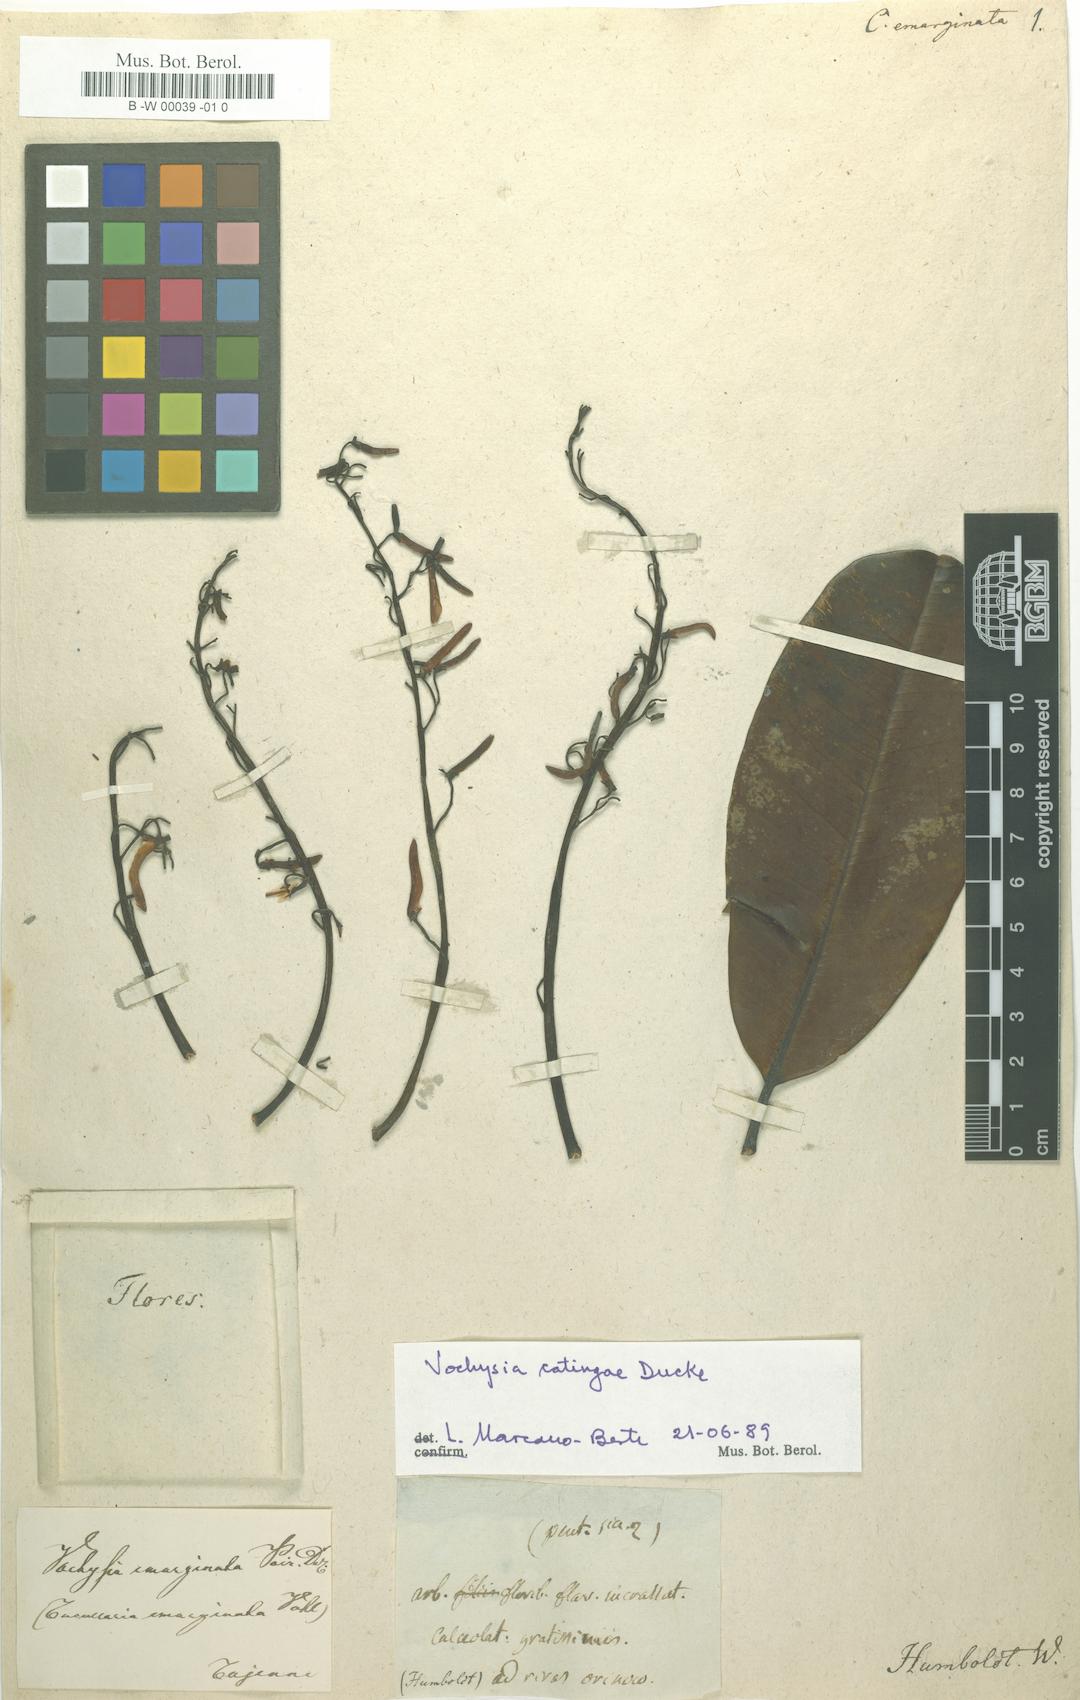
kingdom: Plantae
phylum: Tracheophyta
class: Magnoliopsida
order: Myrtales
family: Vochysiaceae
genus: Vochysia
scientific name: Vochysia emarginata
